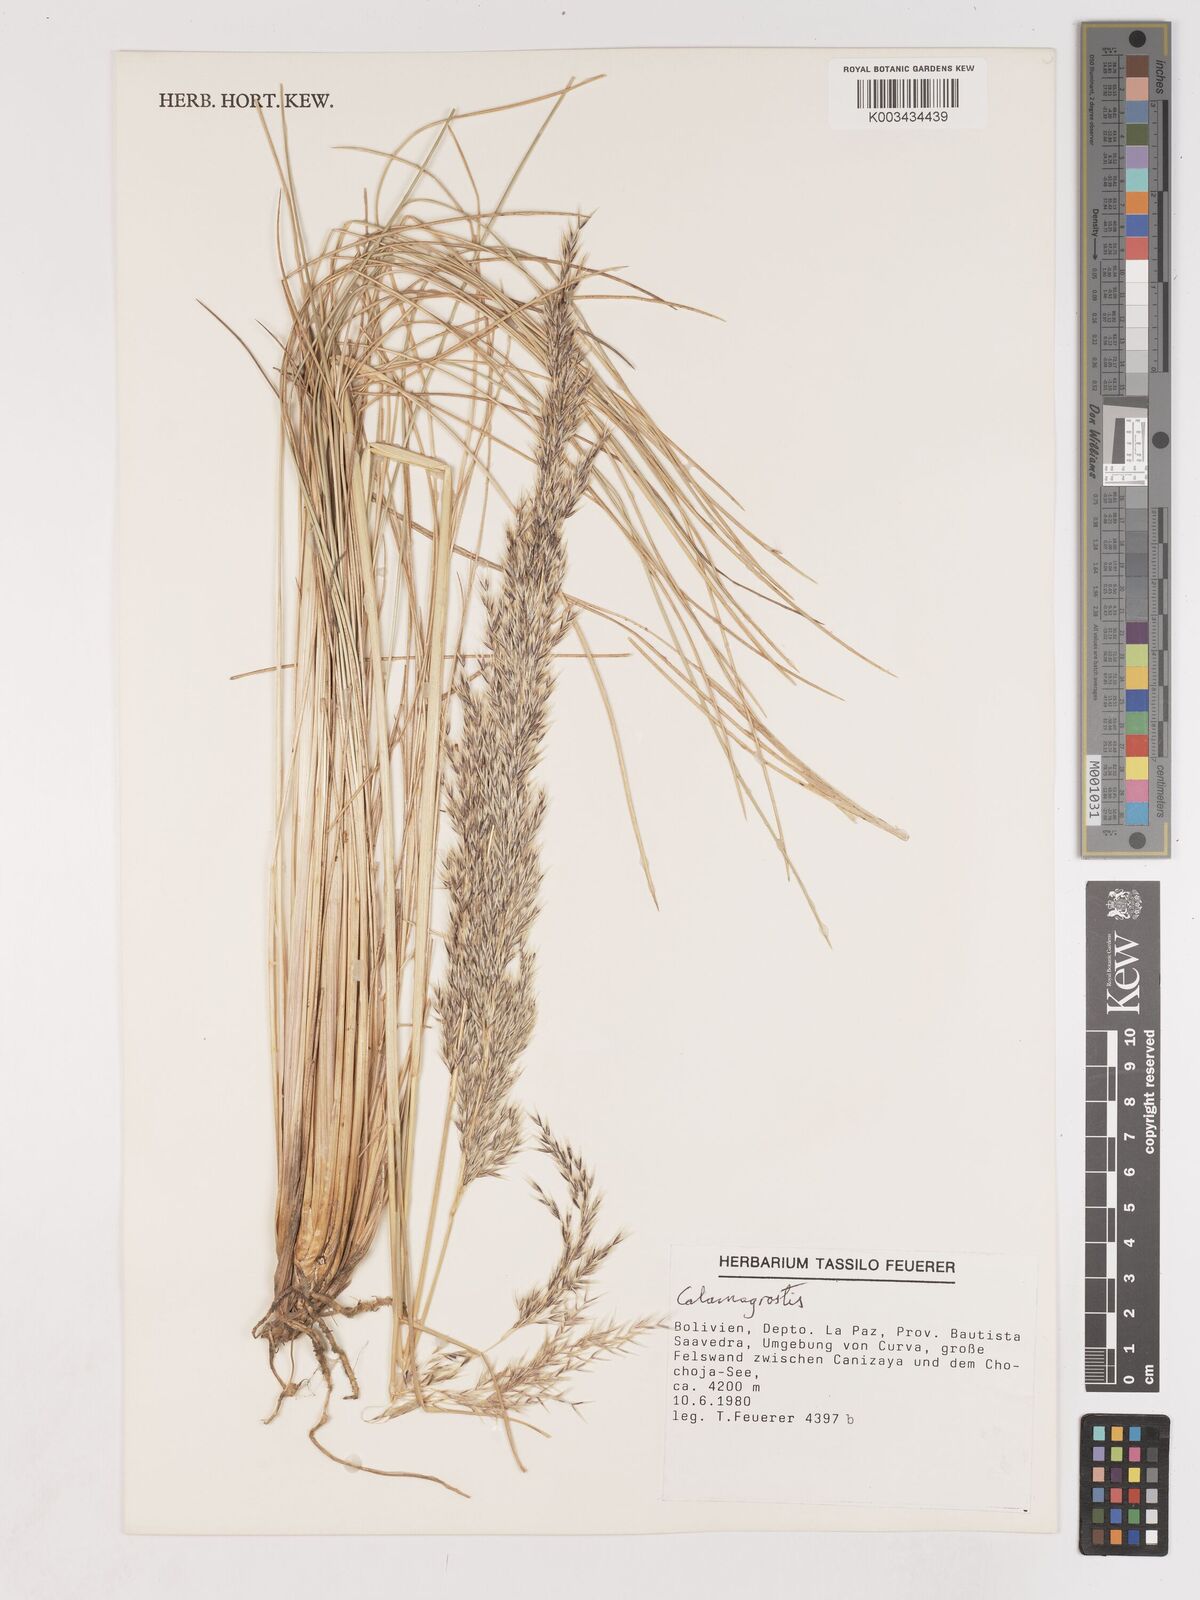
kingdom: Plantae
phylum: Tracheophyta
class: Liliopsida
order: Poales
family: Poaceae
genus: Cinnagrostis
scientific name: Cinnagrostis glacialis
